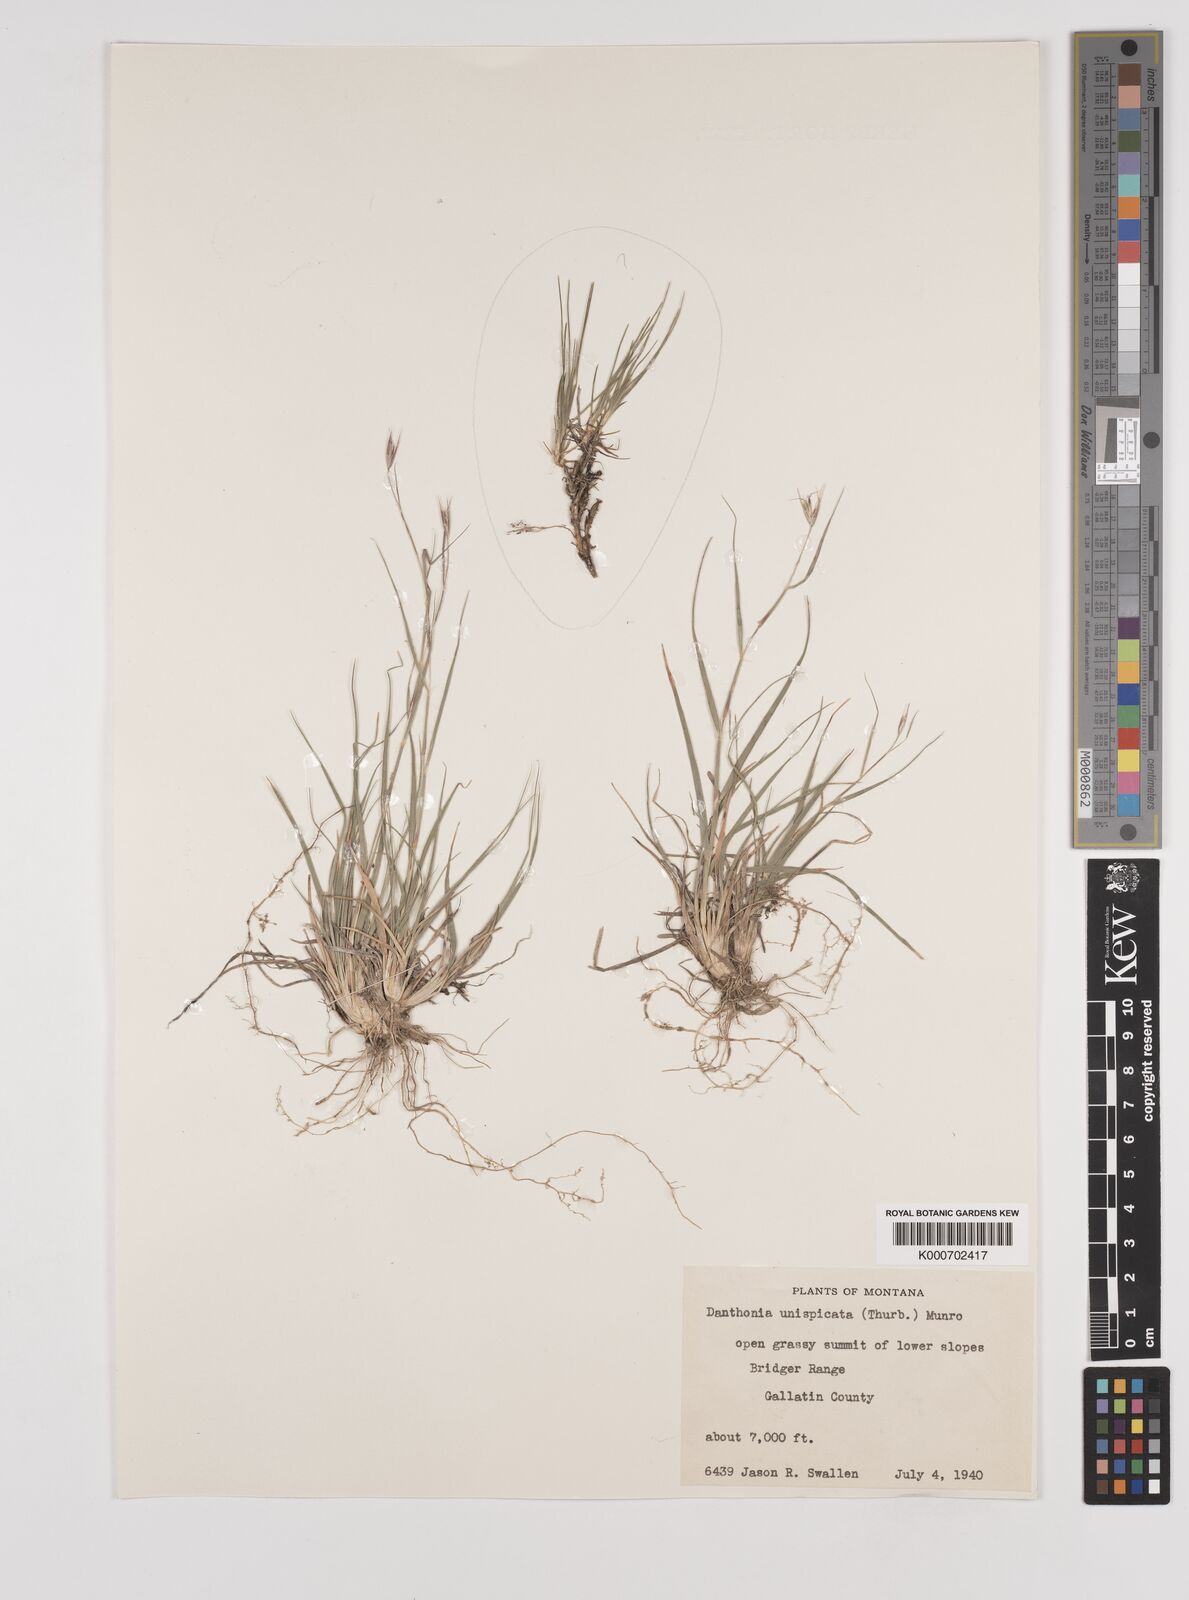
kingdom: Plantae
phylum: Tracheophyta
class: Liliopsida
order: Poales
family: Poaceae
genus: Danthonia
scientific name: Danthonia unispicata
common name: Few-flowered oatgrass
